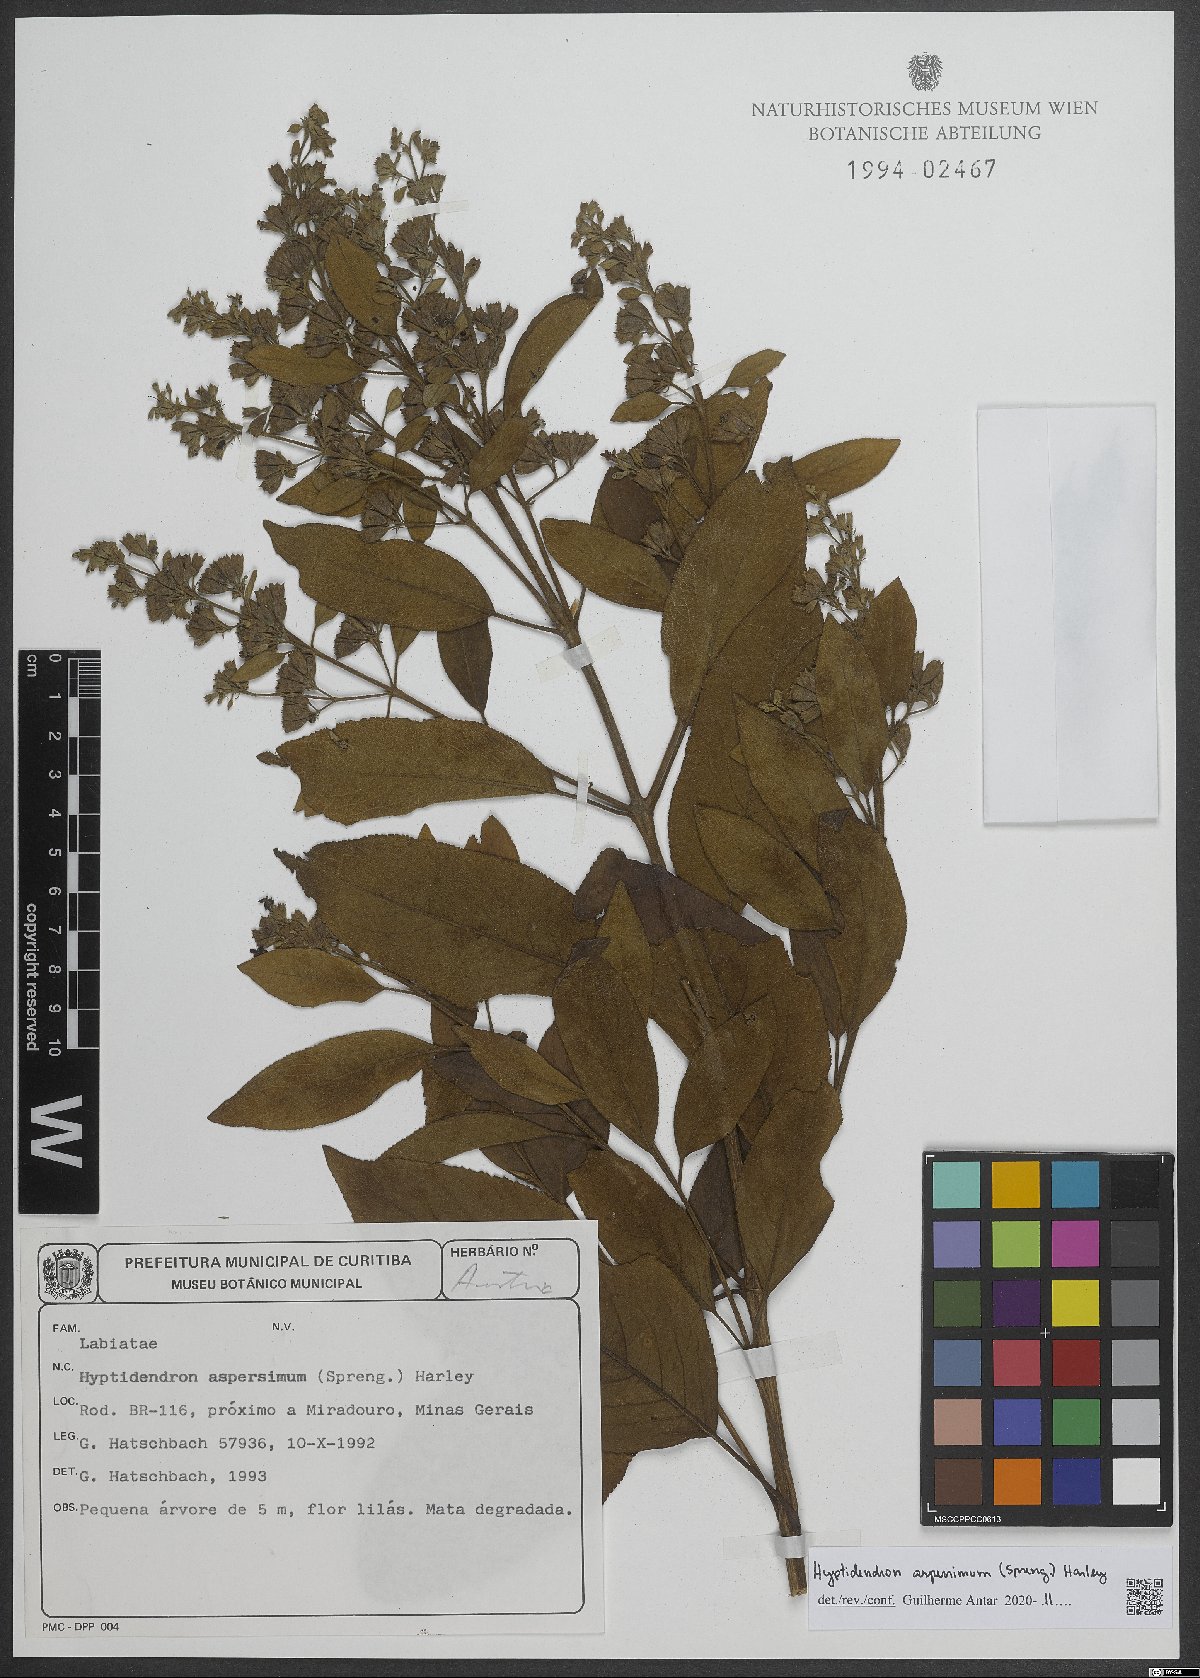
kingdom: Plantae
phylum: Tracheophyta
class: Magnoliopsida
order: Lamiales
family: Lamiaceae
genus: Hyptidendron
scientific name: Hyptidendron asperrimum
